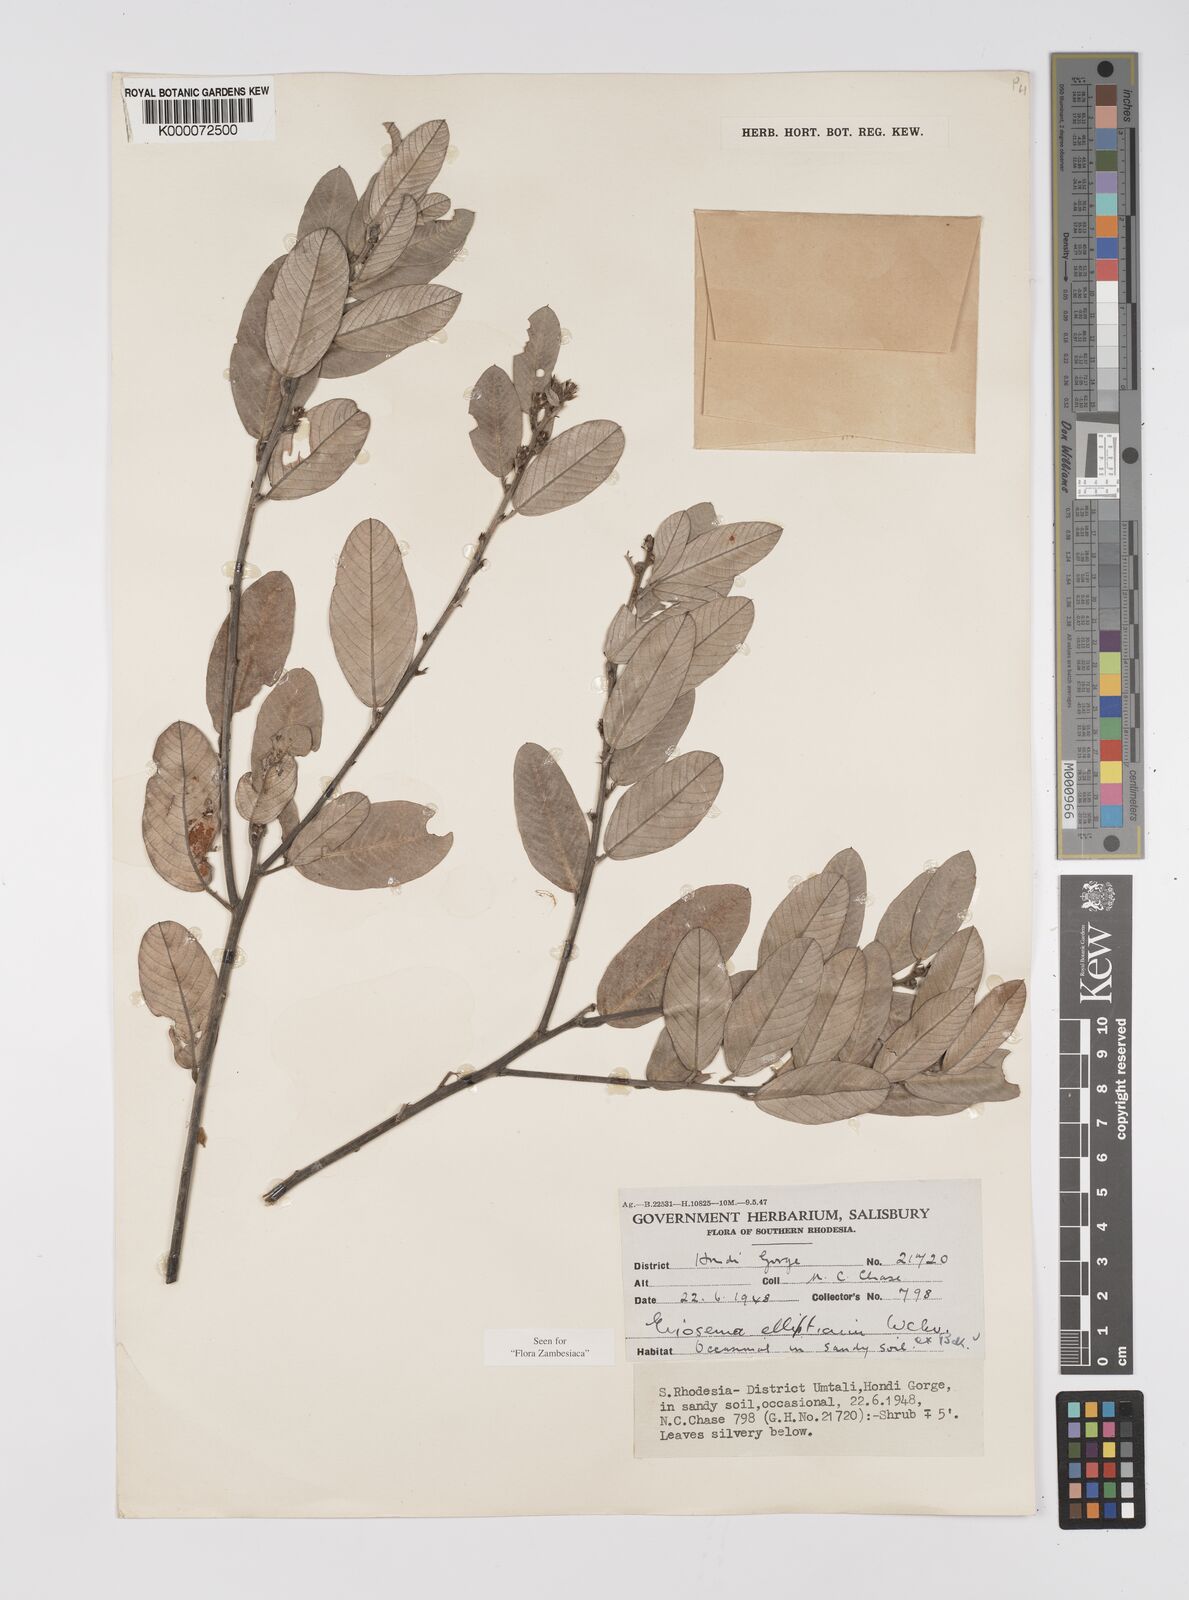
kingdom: Plantae
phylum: Tracheophyta
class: Magnoliopsida
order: Fabales
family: Fabaceae
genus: Eriosema
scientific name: Eriosema ellipticum
